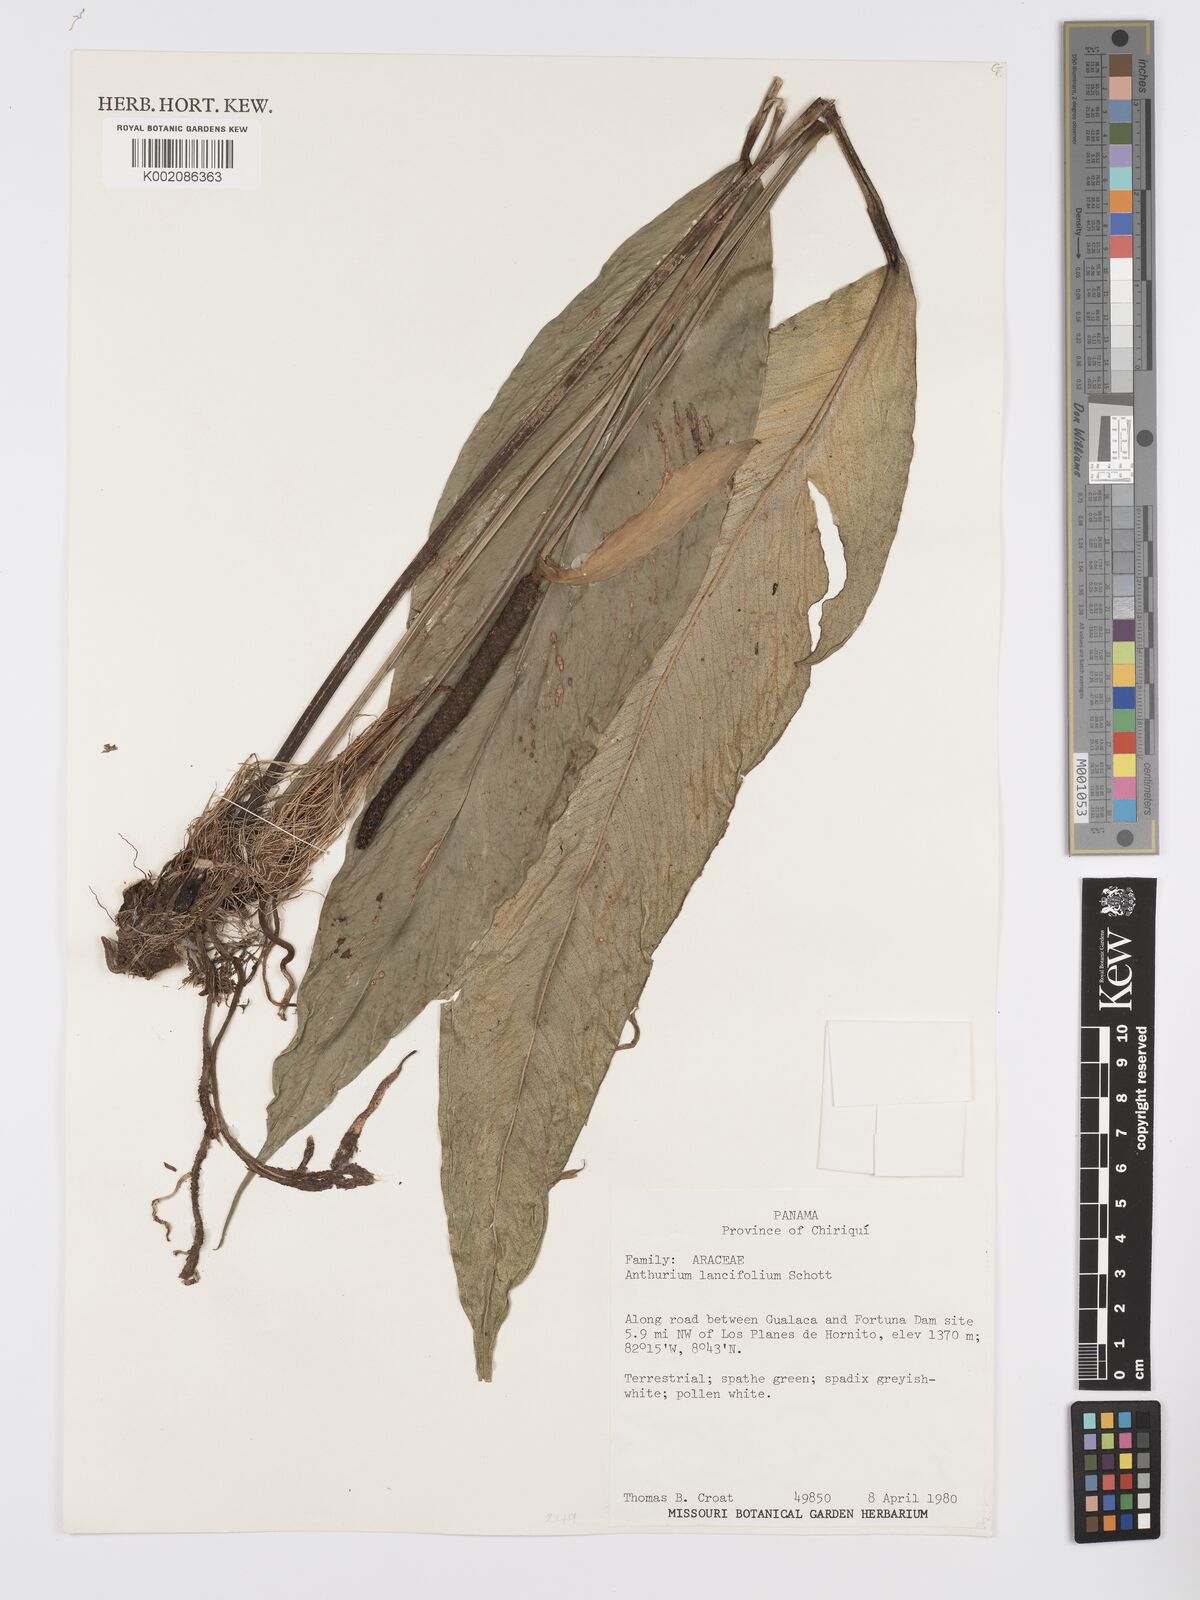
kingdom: Plantae
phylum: Tracheophyta
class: Liliopsida
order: Alismatales
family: Araceae
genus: Anthurium
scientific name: Anthurium lancifolium
